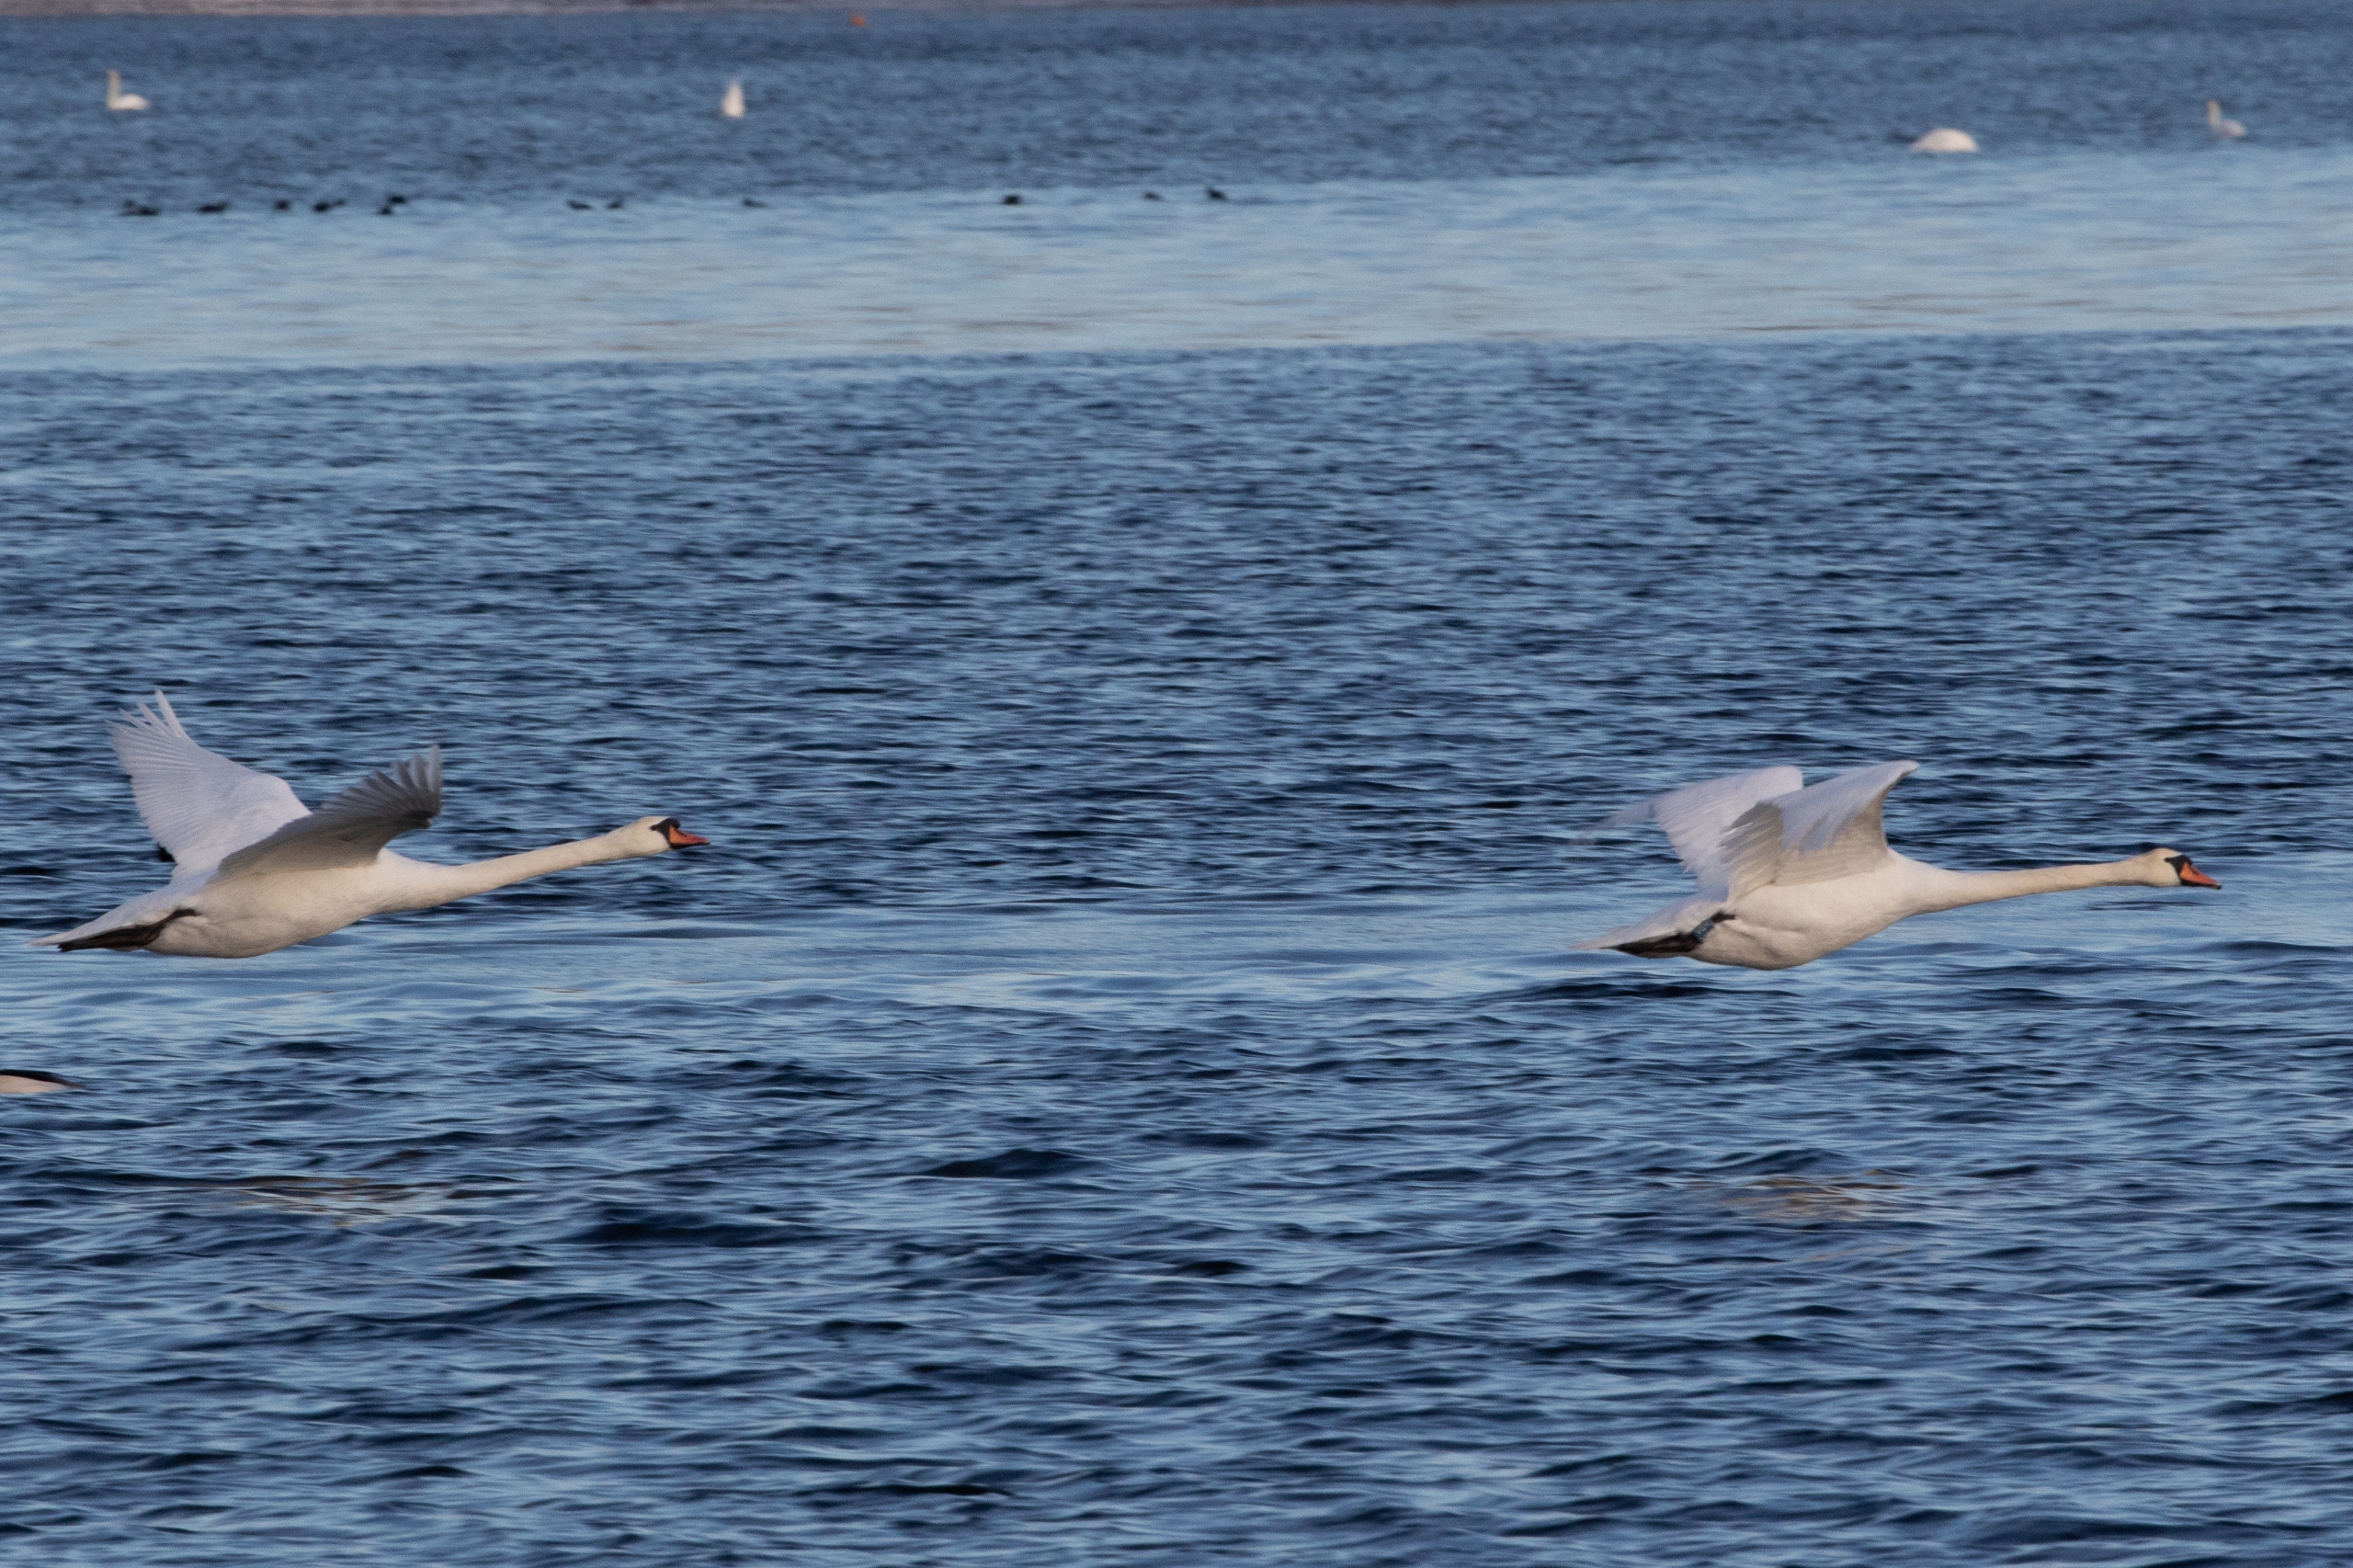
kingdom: Animalia
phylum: Chordata
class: Aves
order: Anseriformes
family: Anatidae
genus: Cygnus
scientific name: Cygnus olor
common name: Knopsvane
